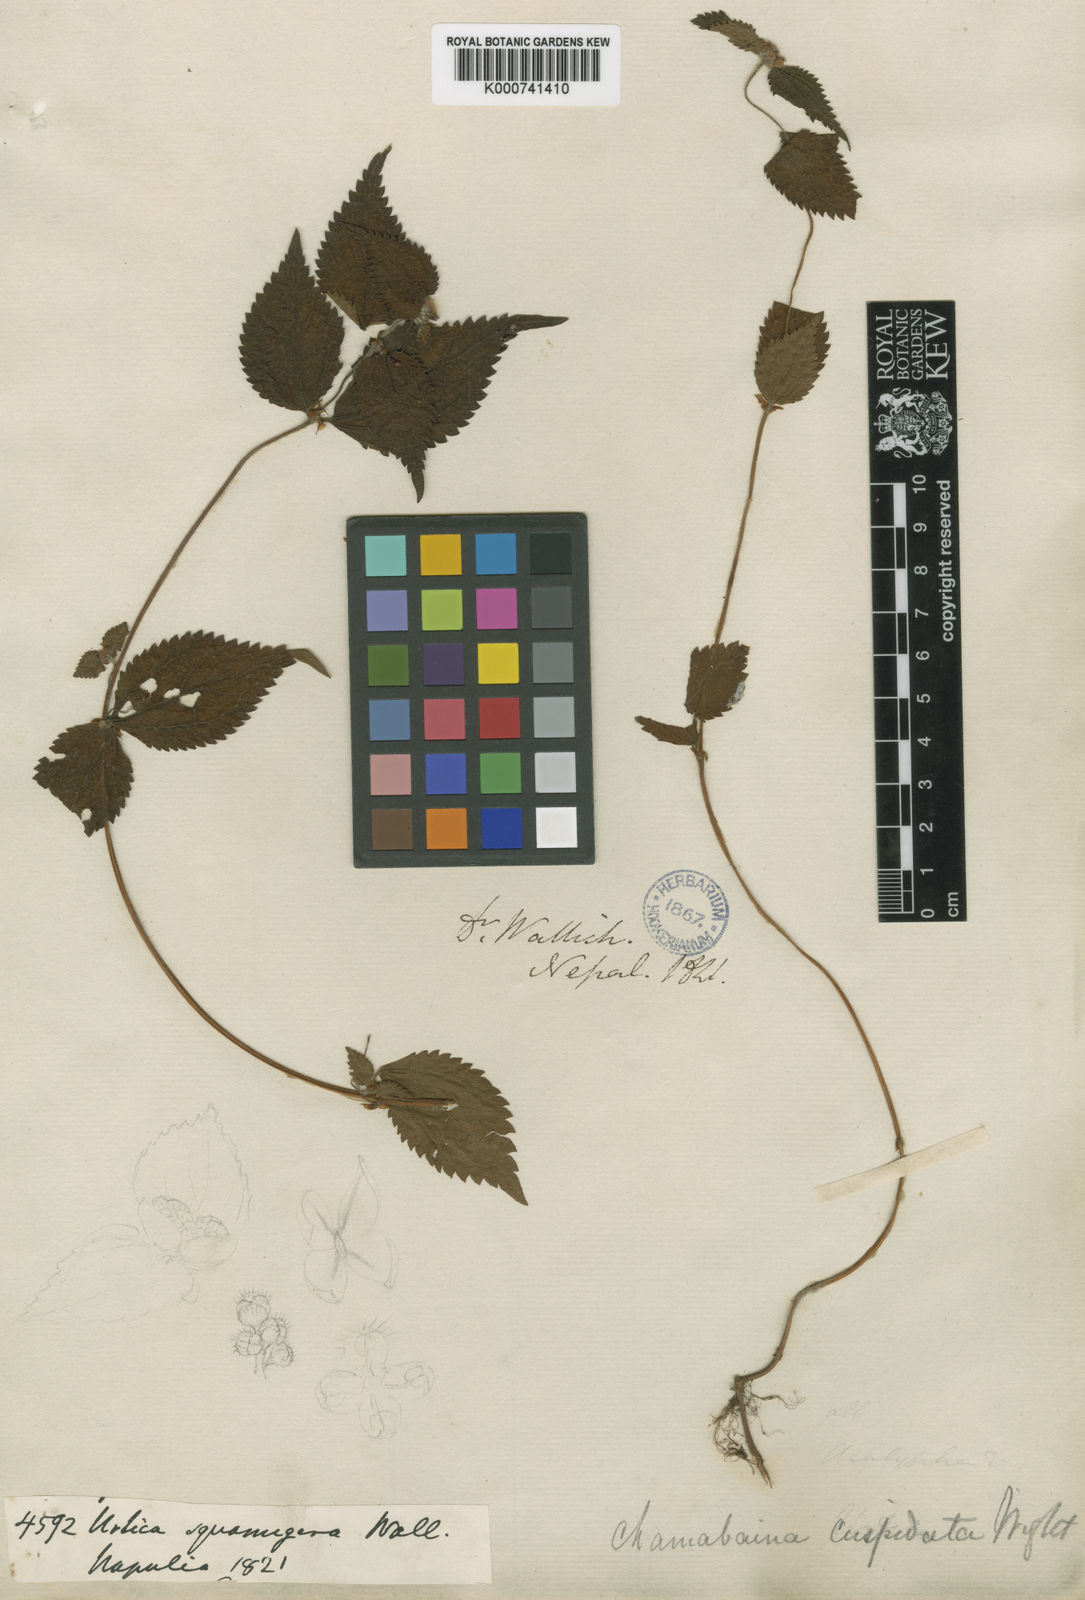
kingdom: Plantae
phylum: Tracheophyta
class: Magnoliopsida
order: Rosales
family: Urticaceae
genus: Chamabainia
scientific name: Chamabainia cuspidata
